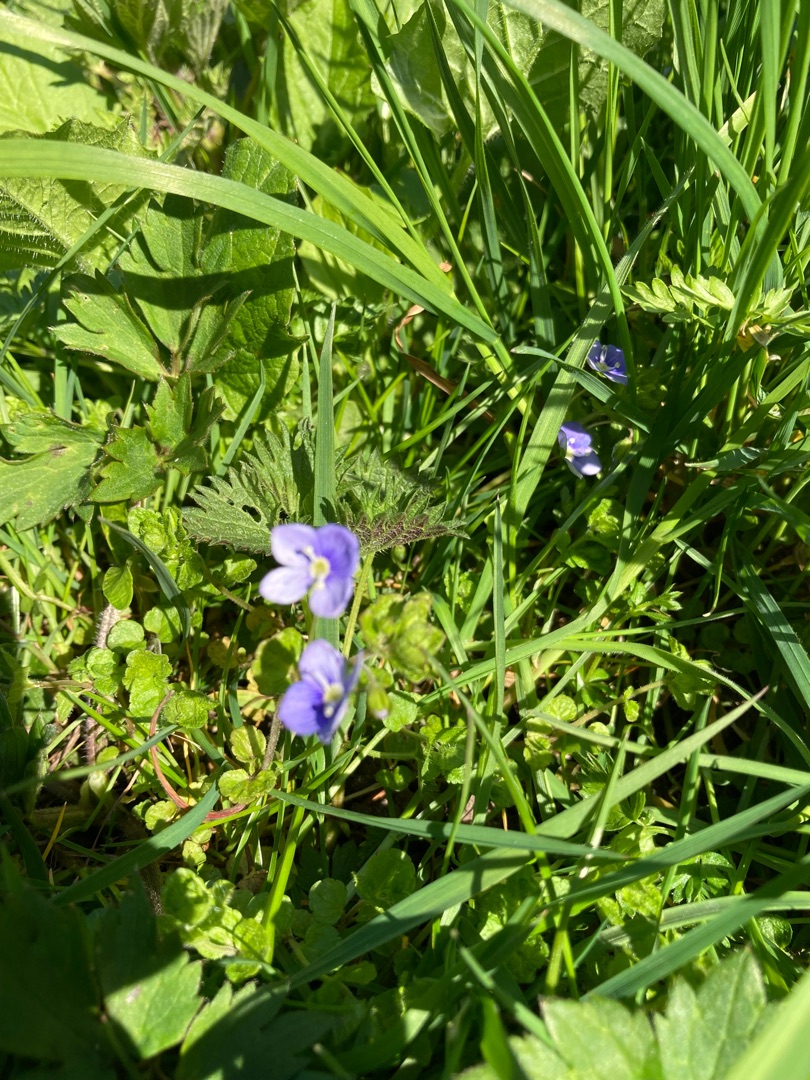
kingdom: Plantae
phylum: Tracheophyta
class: Magnoliopsida
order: Lamiales
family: Plantaginaceae
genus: Veronica
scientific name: Veronica filiformis
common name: Tråd-ærenpris
